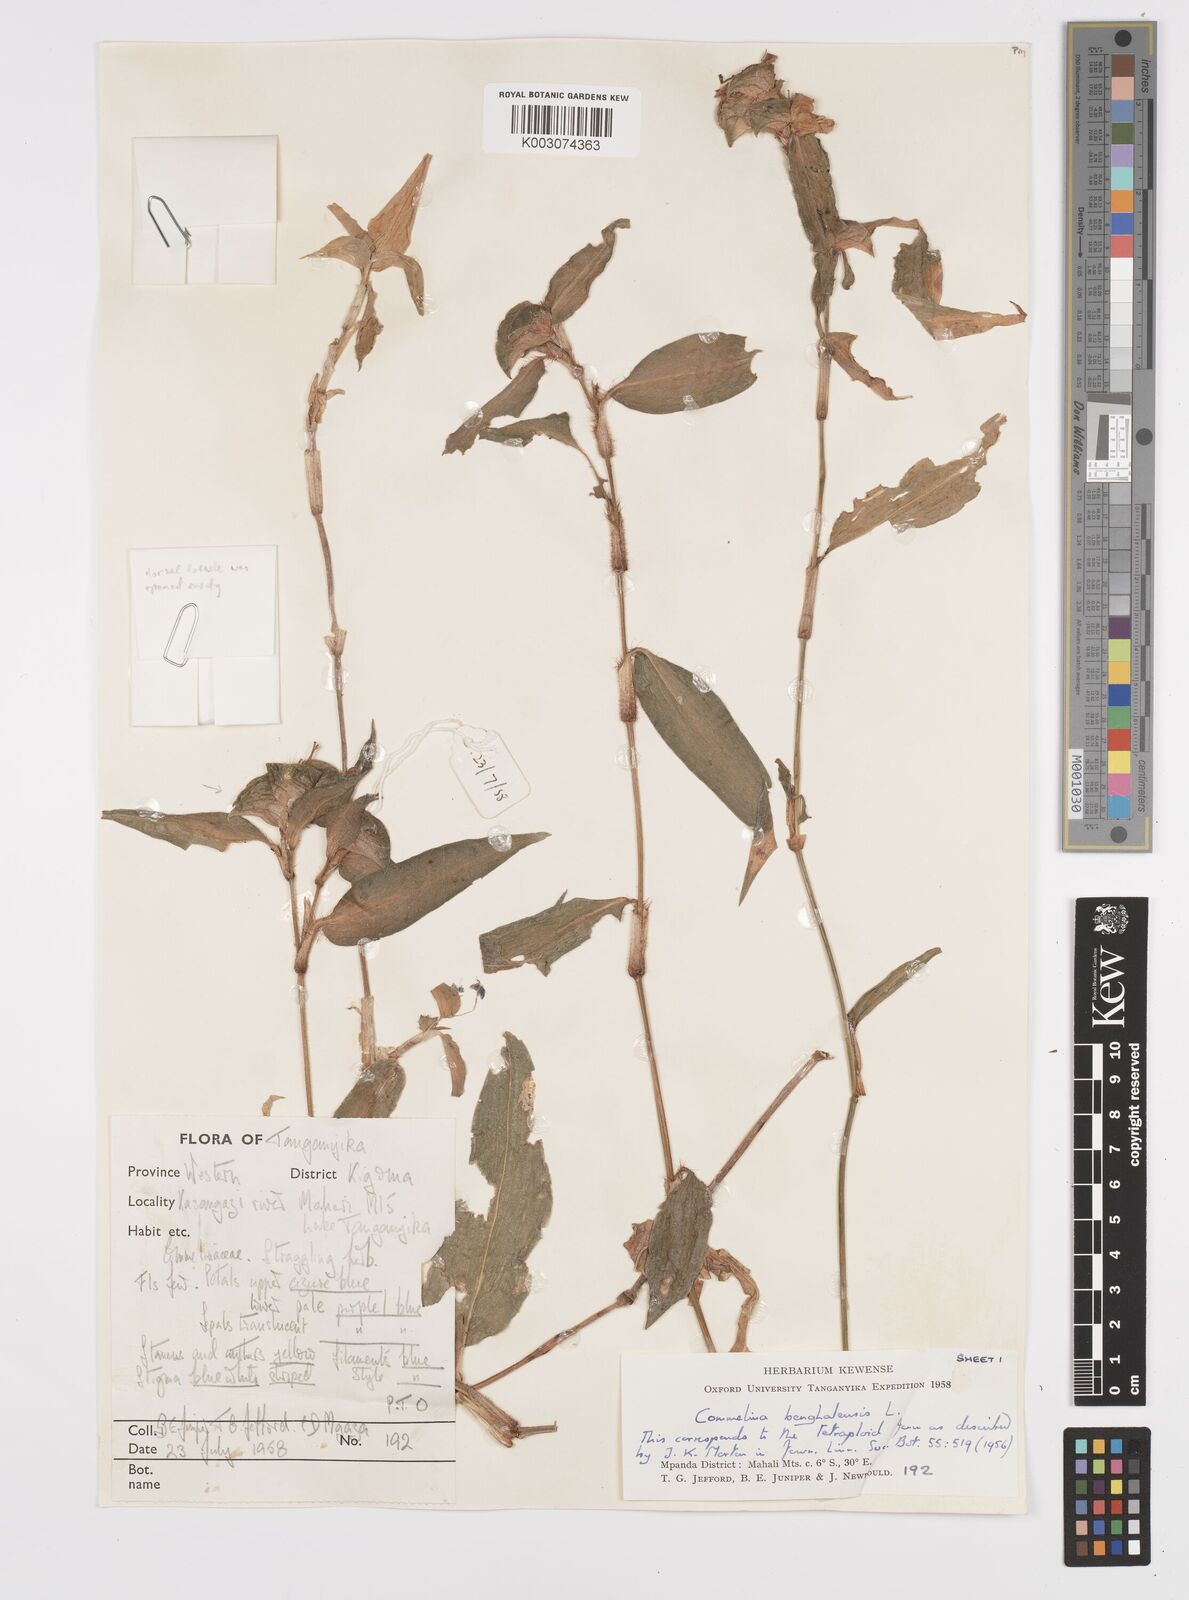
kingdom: Plantae
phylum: Tracheophyta
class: Liliopsida
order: Commelinales
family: Commelinaceae
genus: Commelina
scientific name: Commelina benghalensis
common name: Jio
